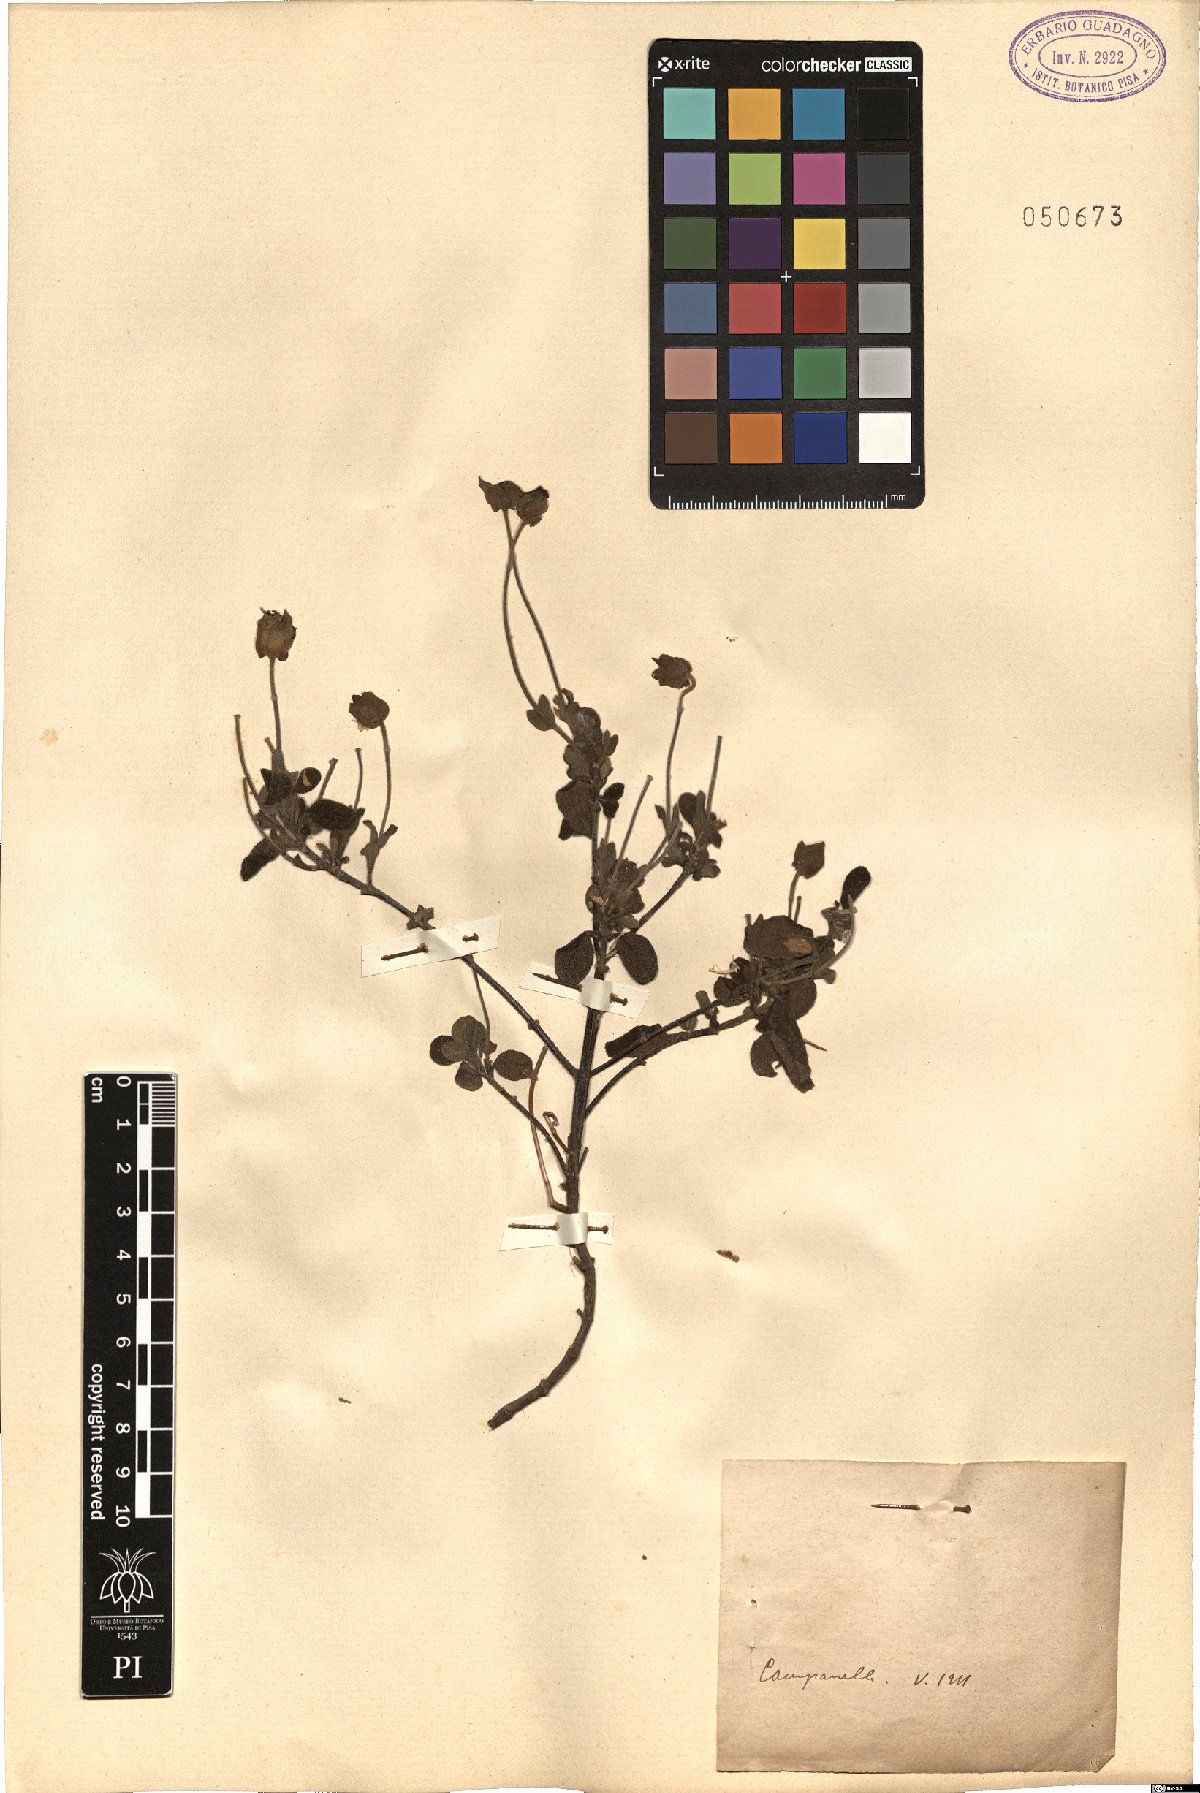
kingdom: Plantae
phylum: Tracheophyta
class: Magnoliopsida
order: Malvales
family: Cistaceae
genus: Cistus
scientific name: Cistus
